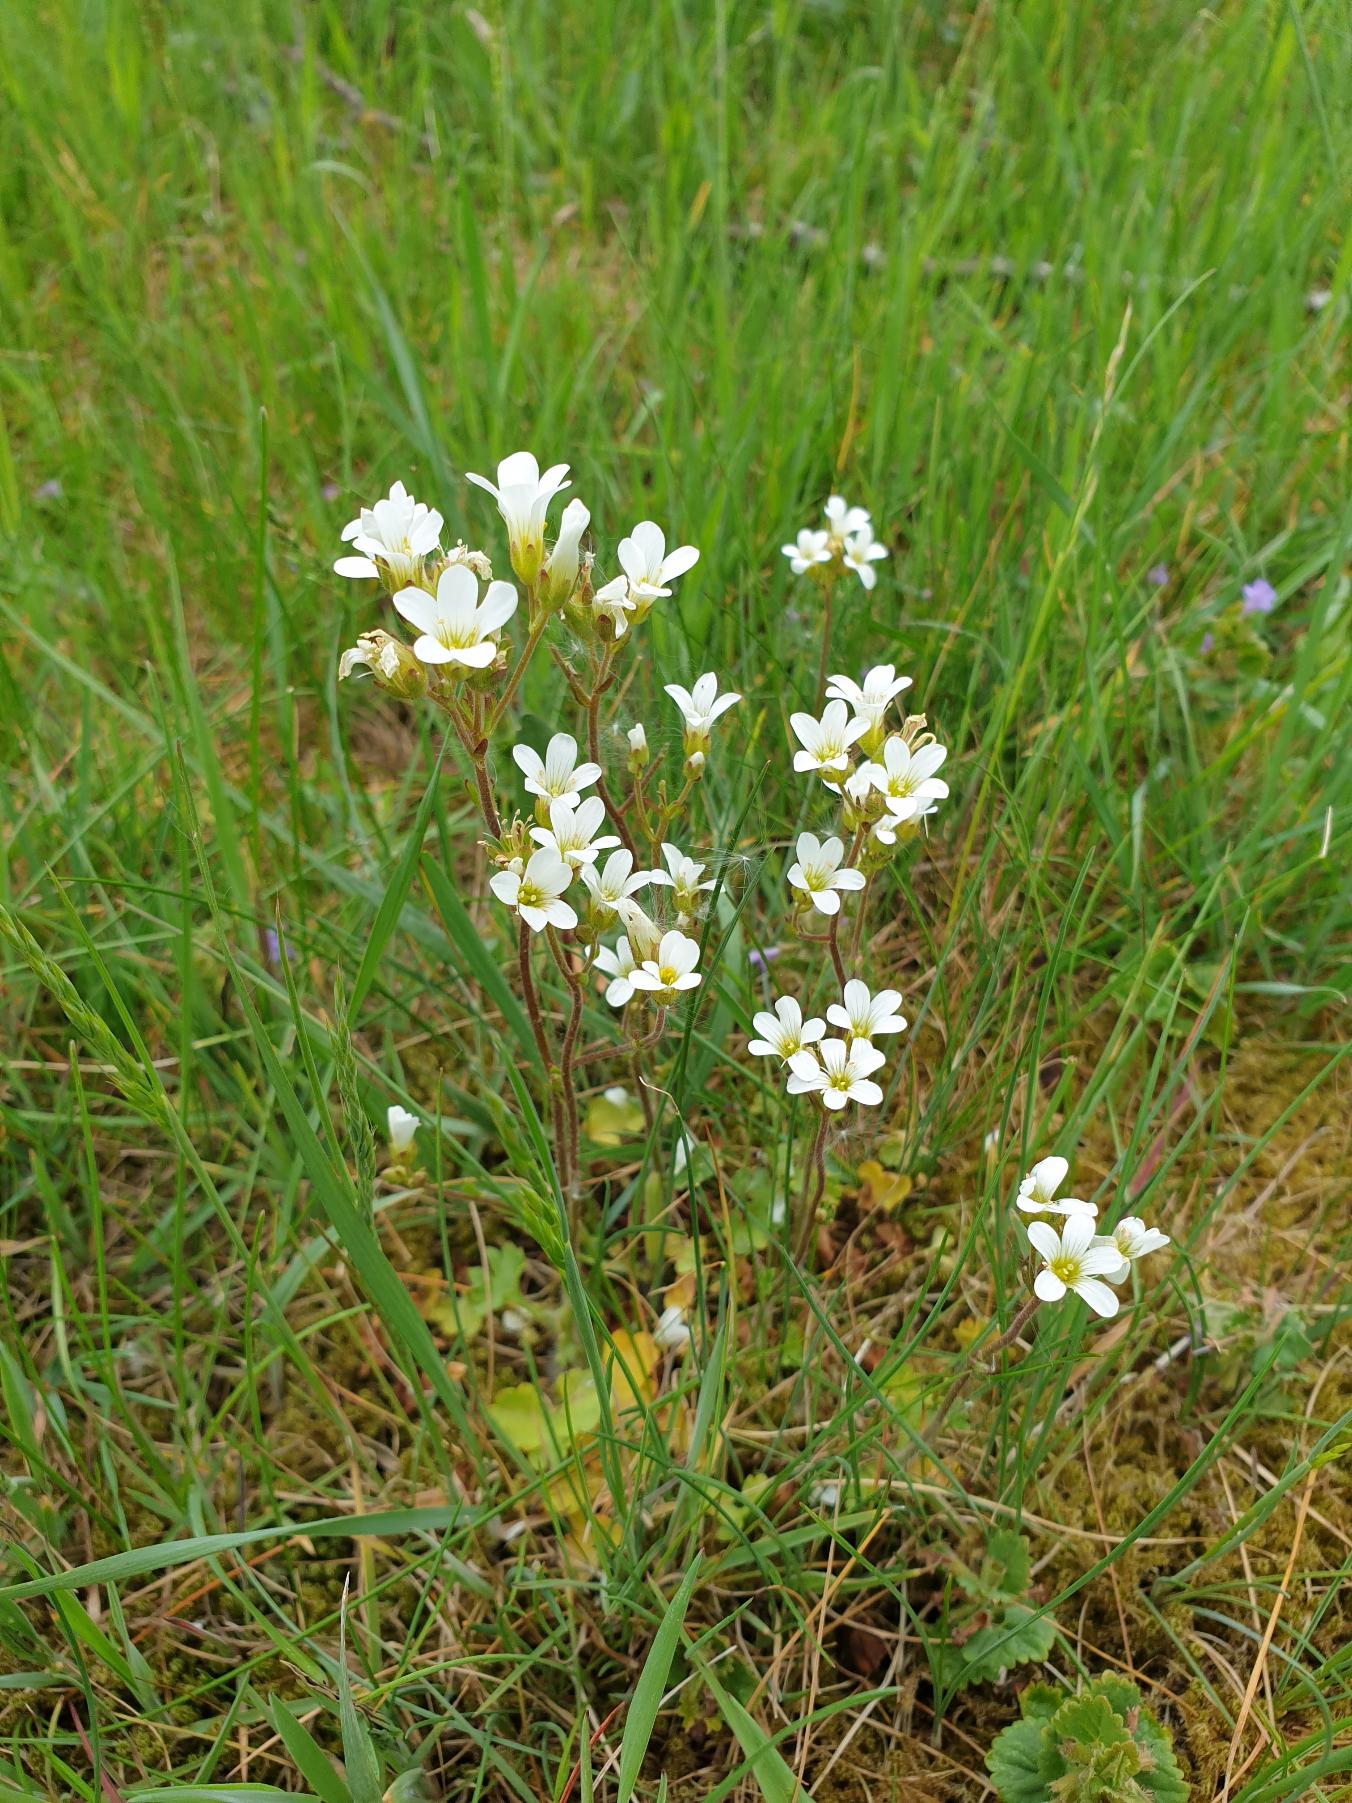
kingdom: Plantae
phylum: Tracheophyta
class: Magnoliopsida
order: Saxifragales
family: Saxifragaceae
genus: Saxifraga
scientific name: Saxifraga granulata
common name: Kornet stenbræk
